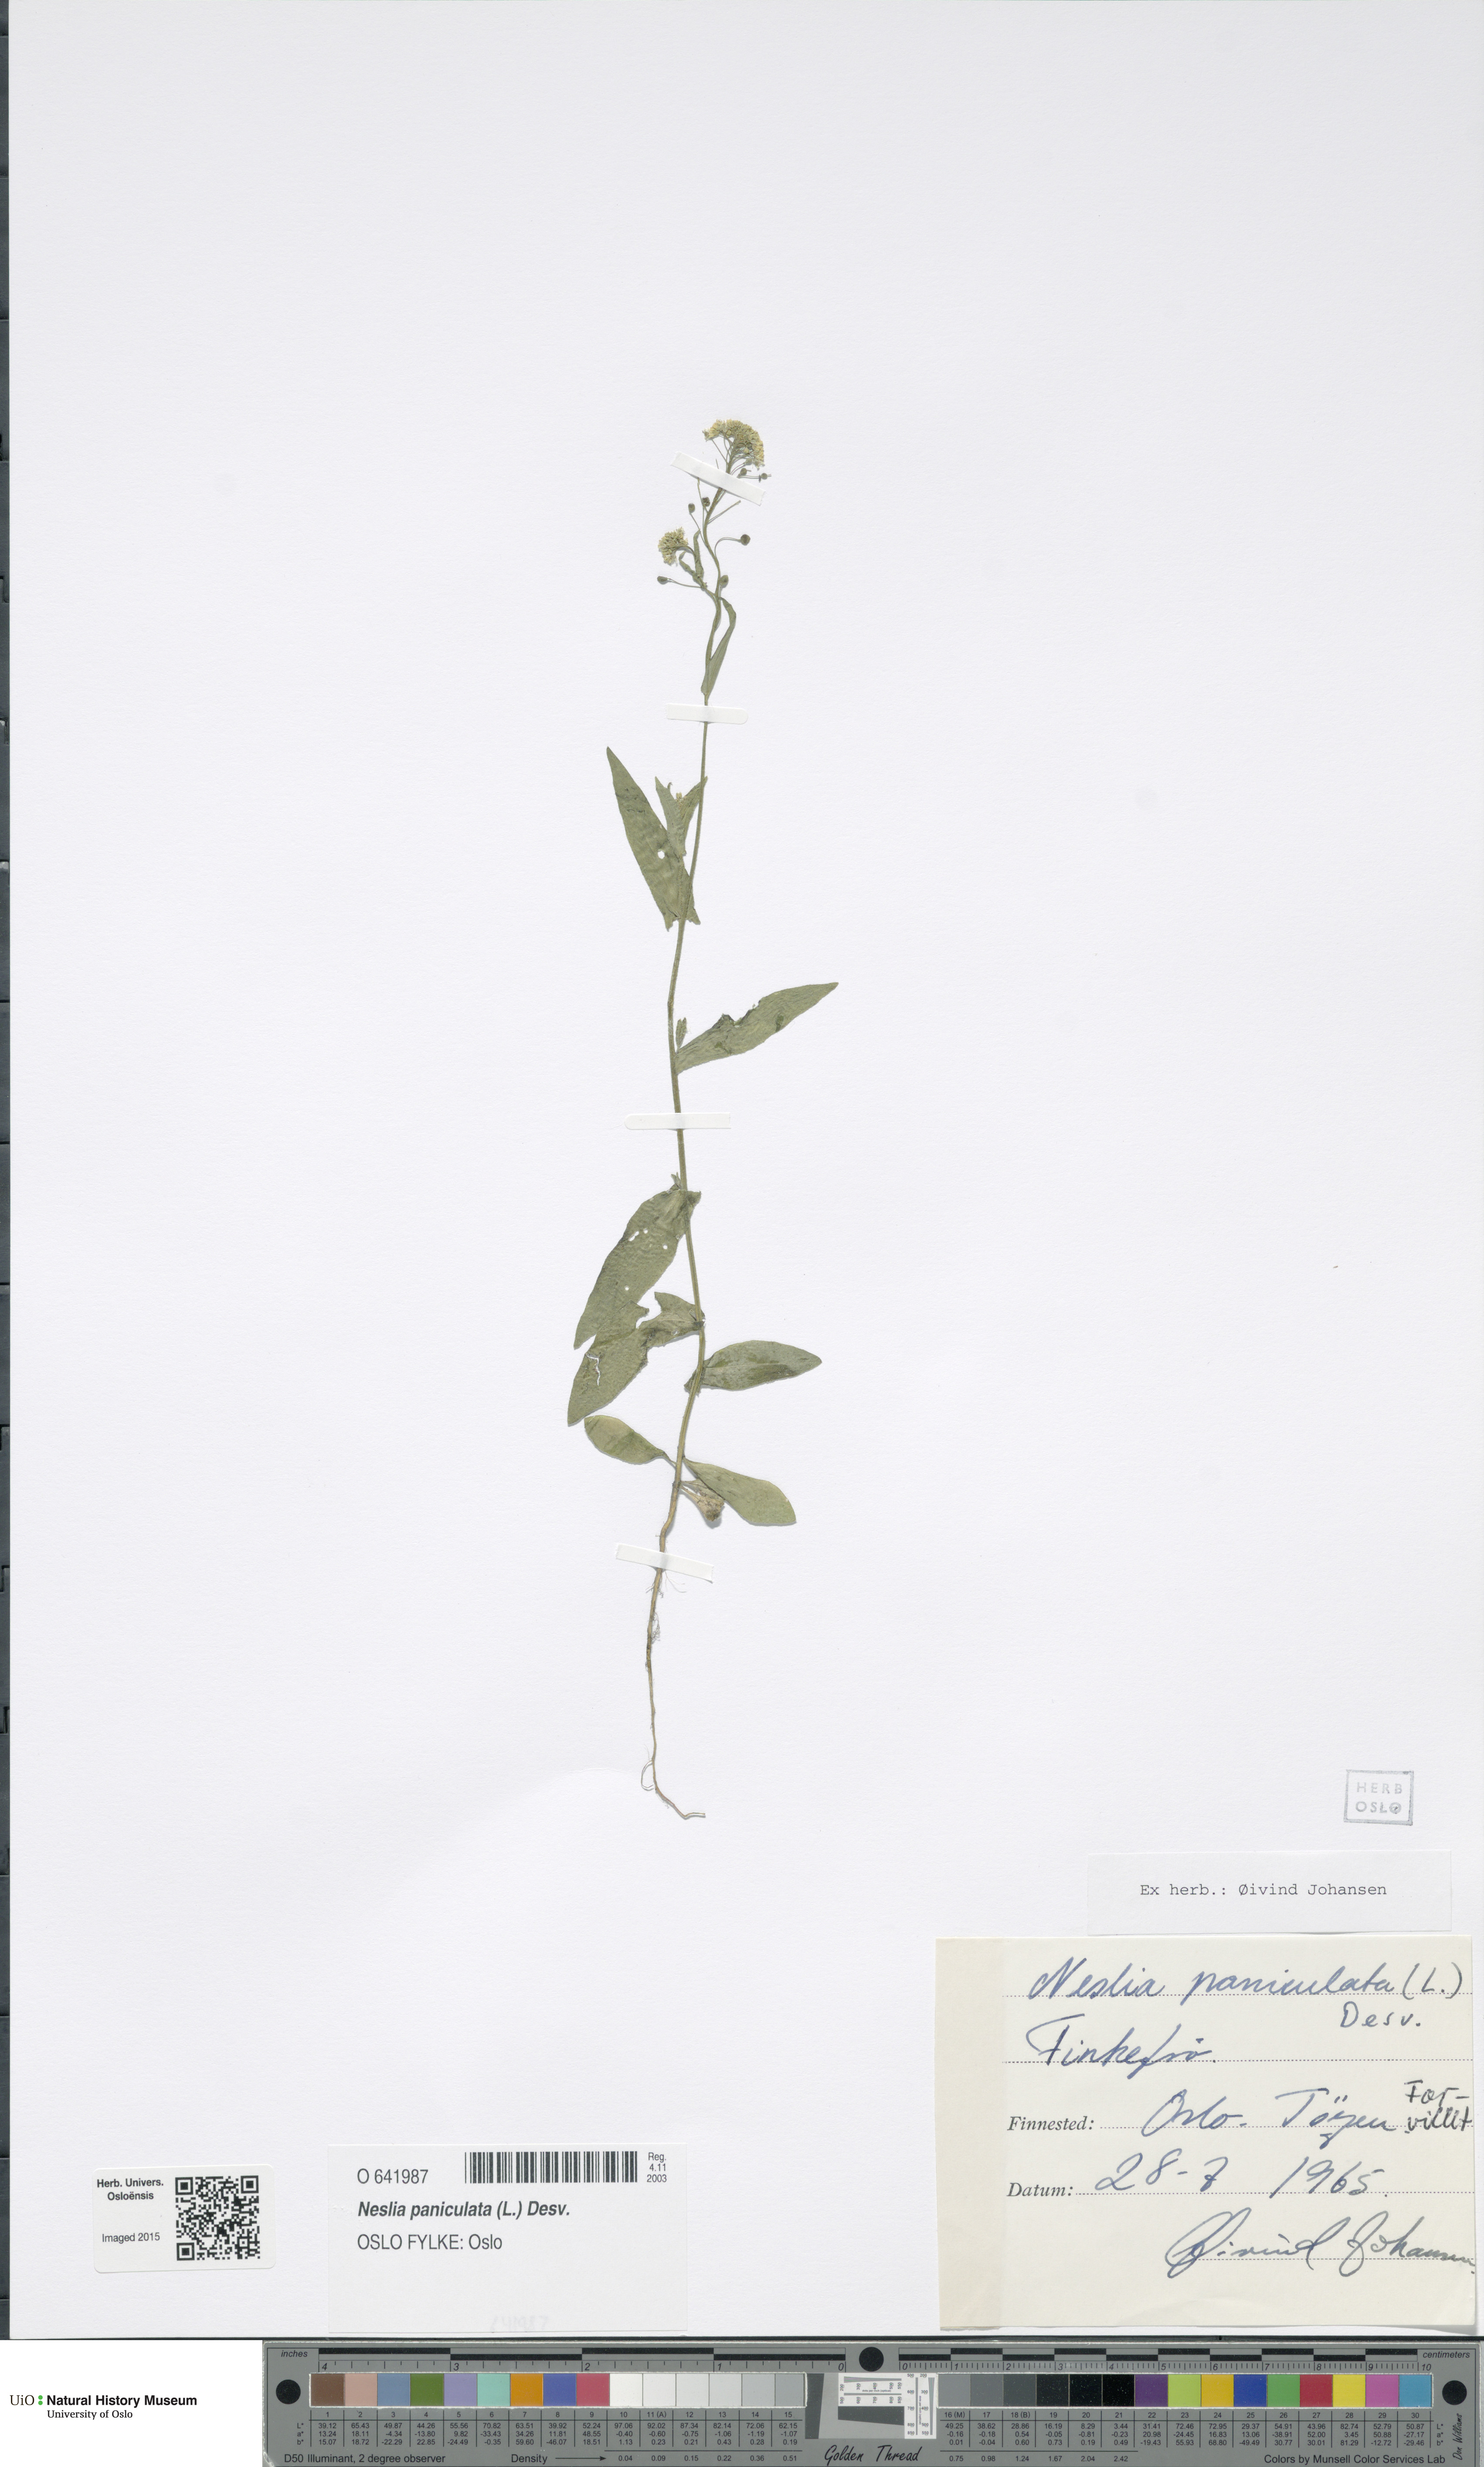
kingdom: Plantae
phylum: Tracheophyta
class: Magnoliopsida
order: Brassicales
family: Brassicaceae
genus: Neslia
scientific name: Neslia paniculata
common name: Ball mustard
